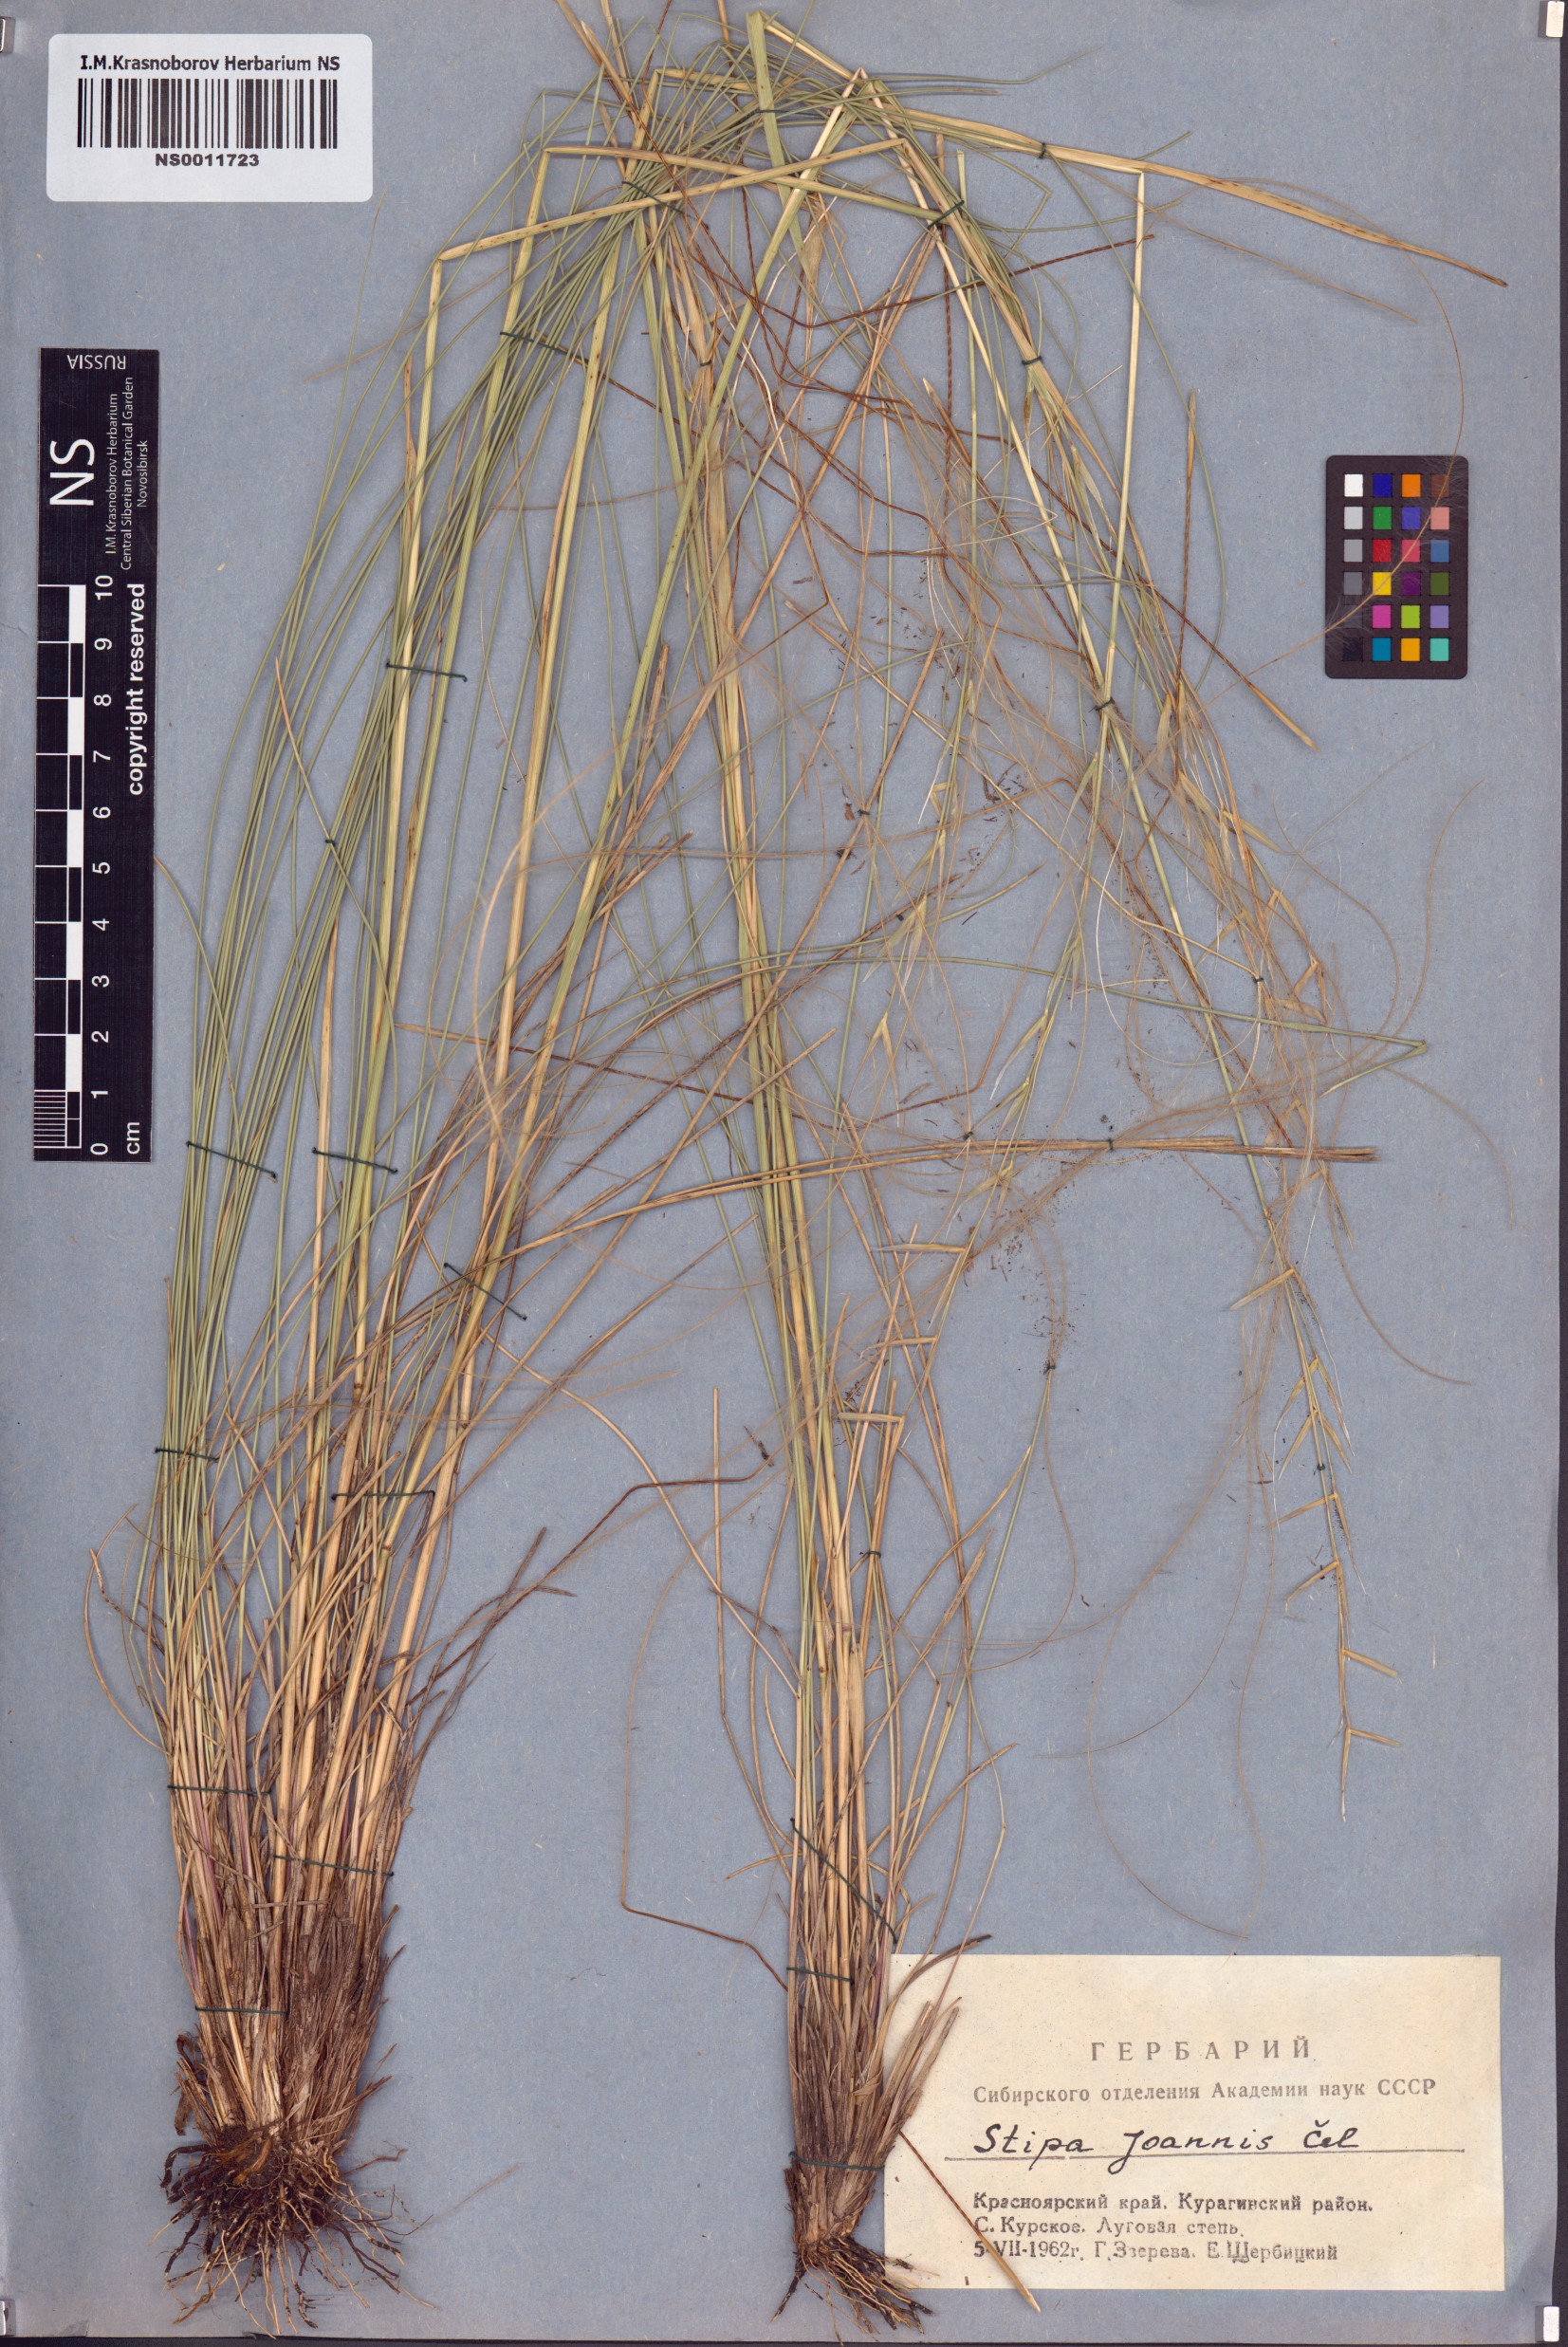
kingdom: Plantae
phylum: Tracheophyta
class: Liliopsida
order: Poales
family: Poaceae
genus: Stipa
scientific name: Stipa pennata
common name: European feather grass
